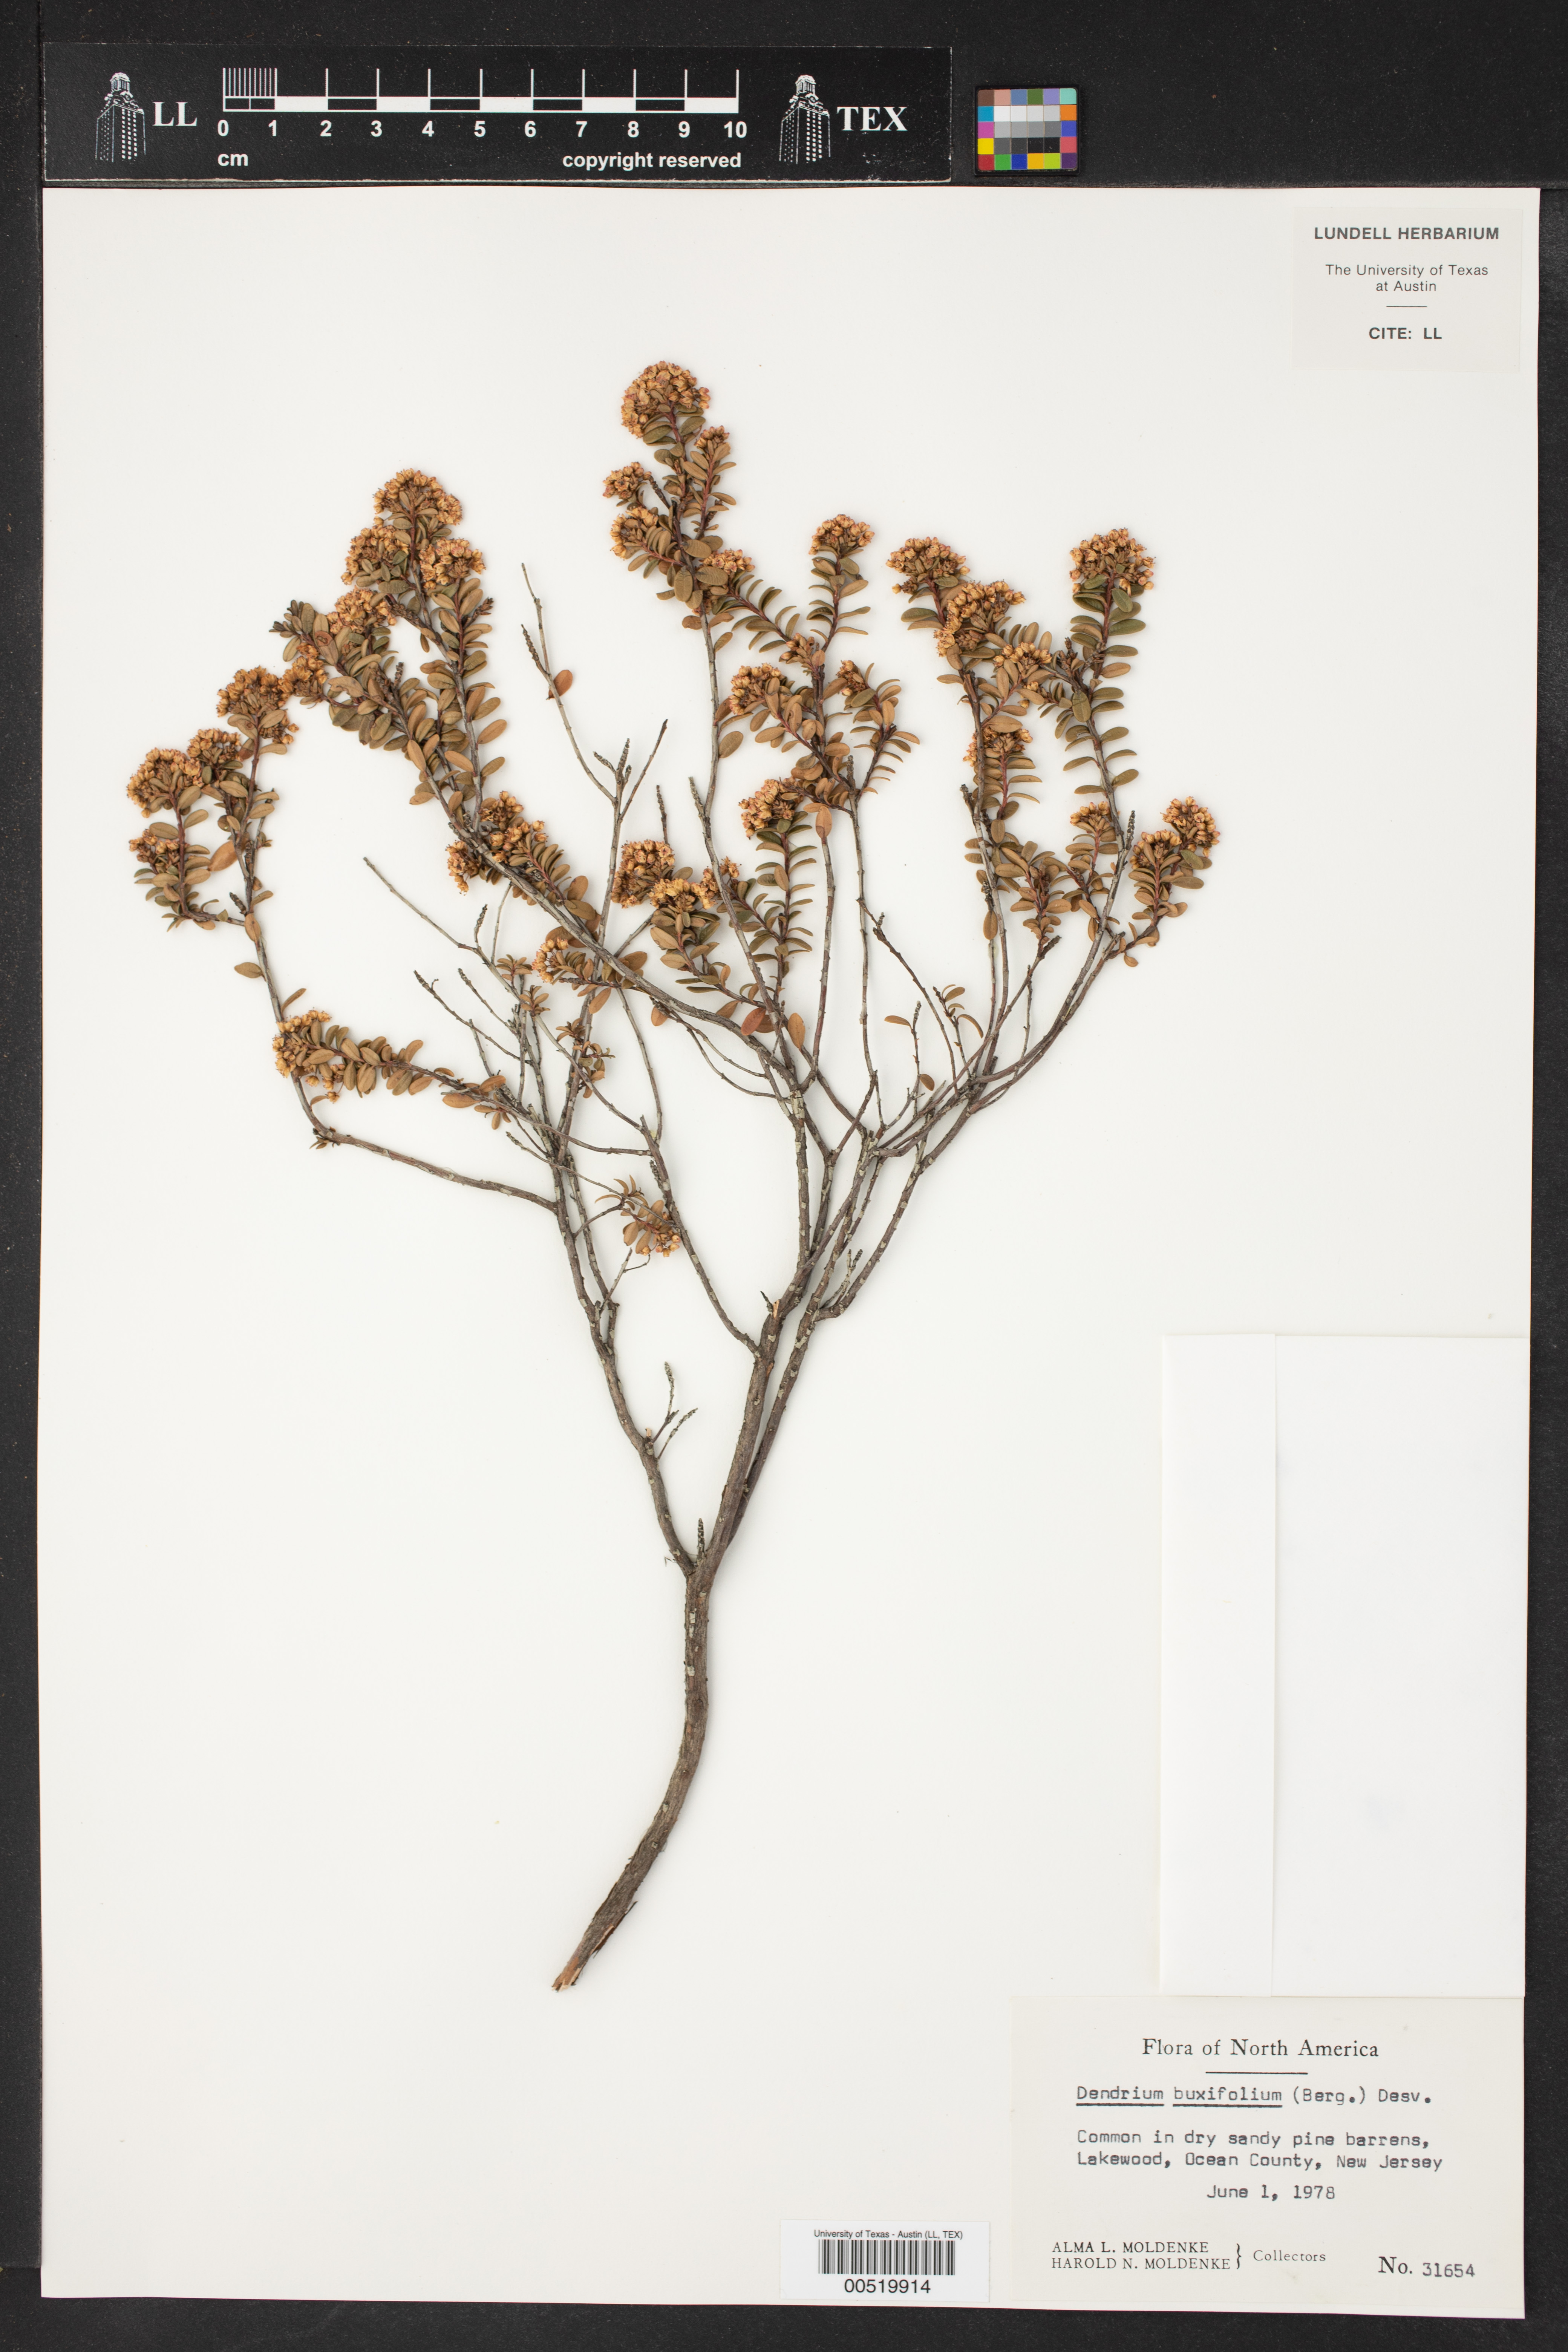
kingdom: Plantae
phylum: Tracheophyta
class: Magnoliopsida
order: Ericales
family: Ericaceae
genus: Kalmia
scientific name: Kalmia buxifolia
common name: Sandmyrtle
